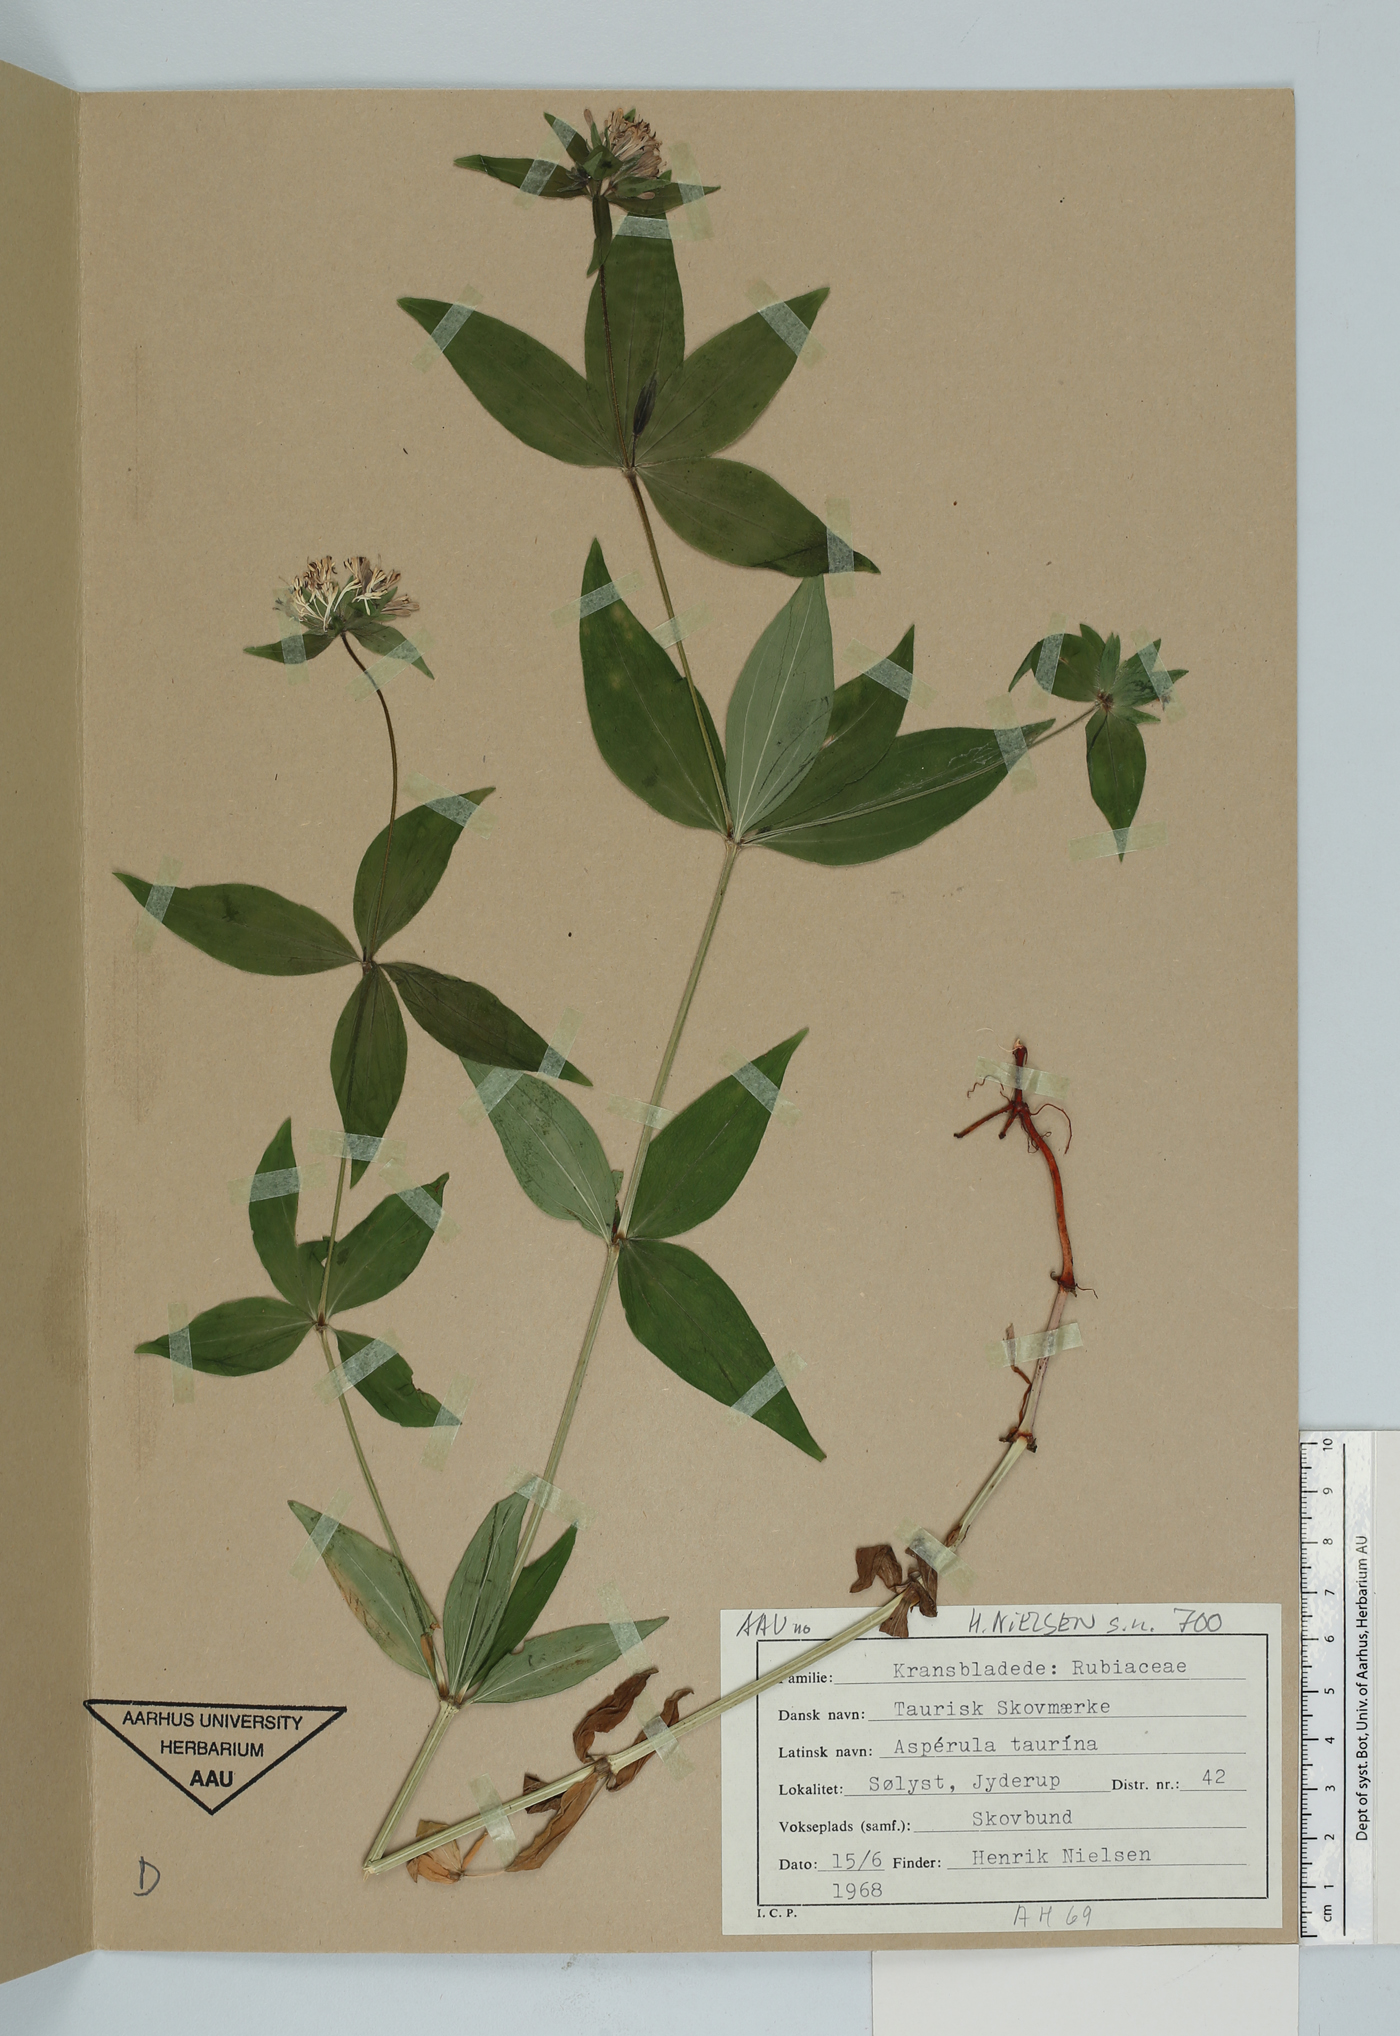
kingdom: Plantae
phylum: Tracheophyta
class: Magnoliopsida
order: Gentianales
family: Rubiaceae
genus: Asperula
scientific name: Asperula taurina
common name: Pink woodruff
